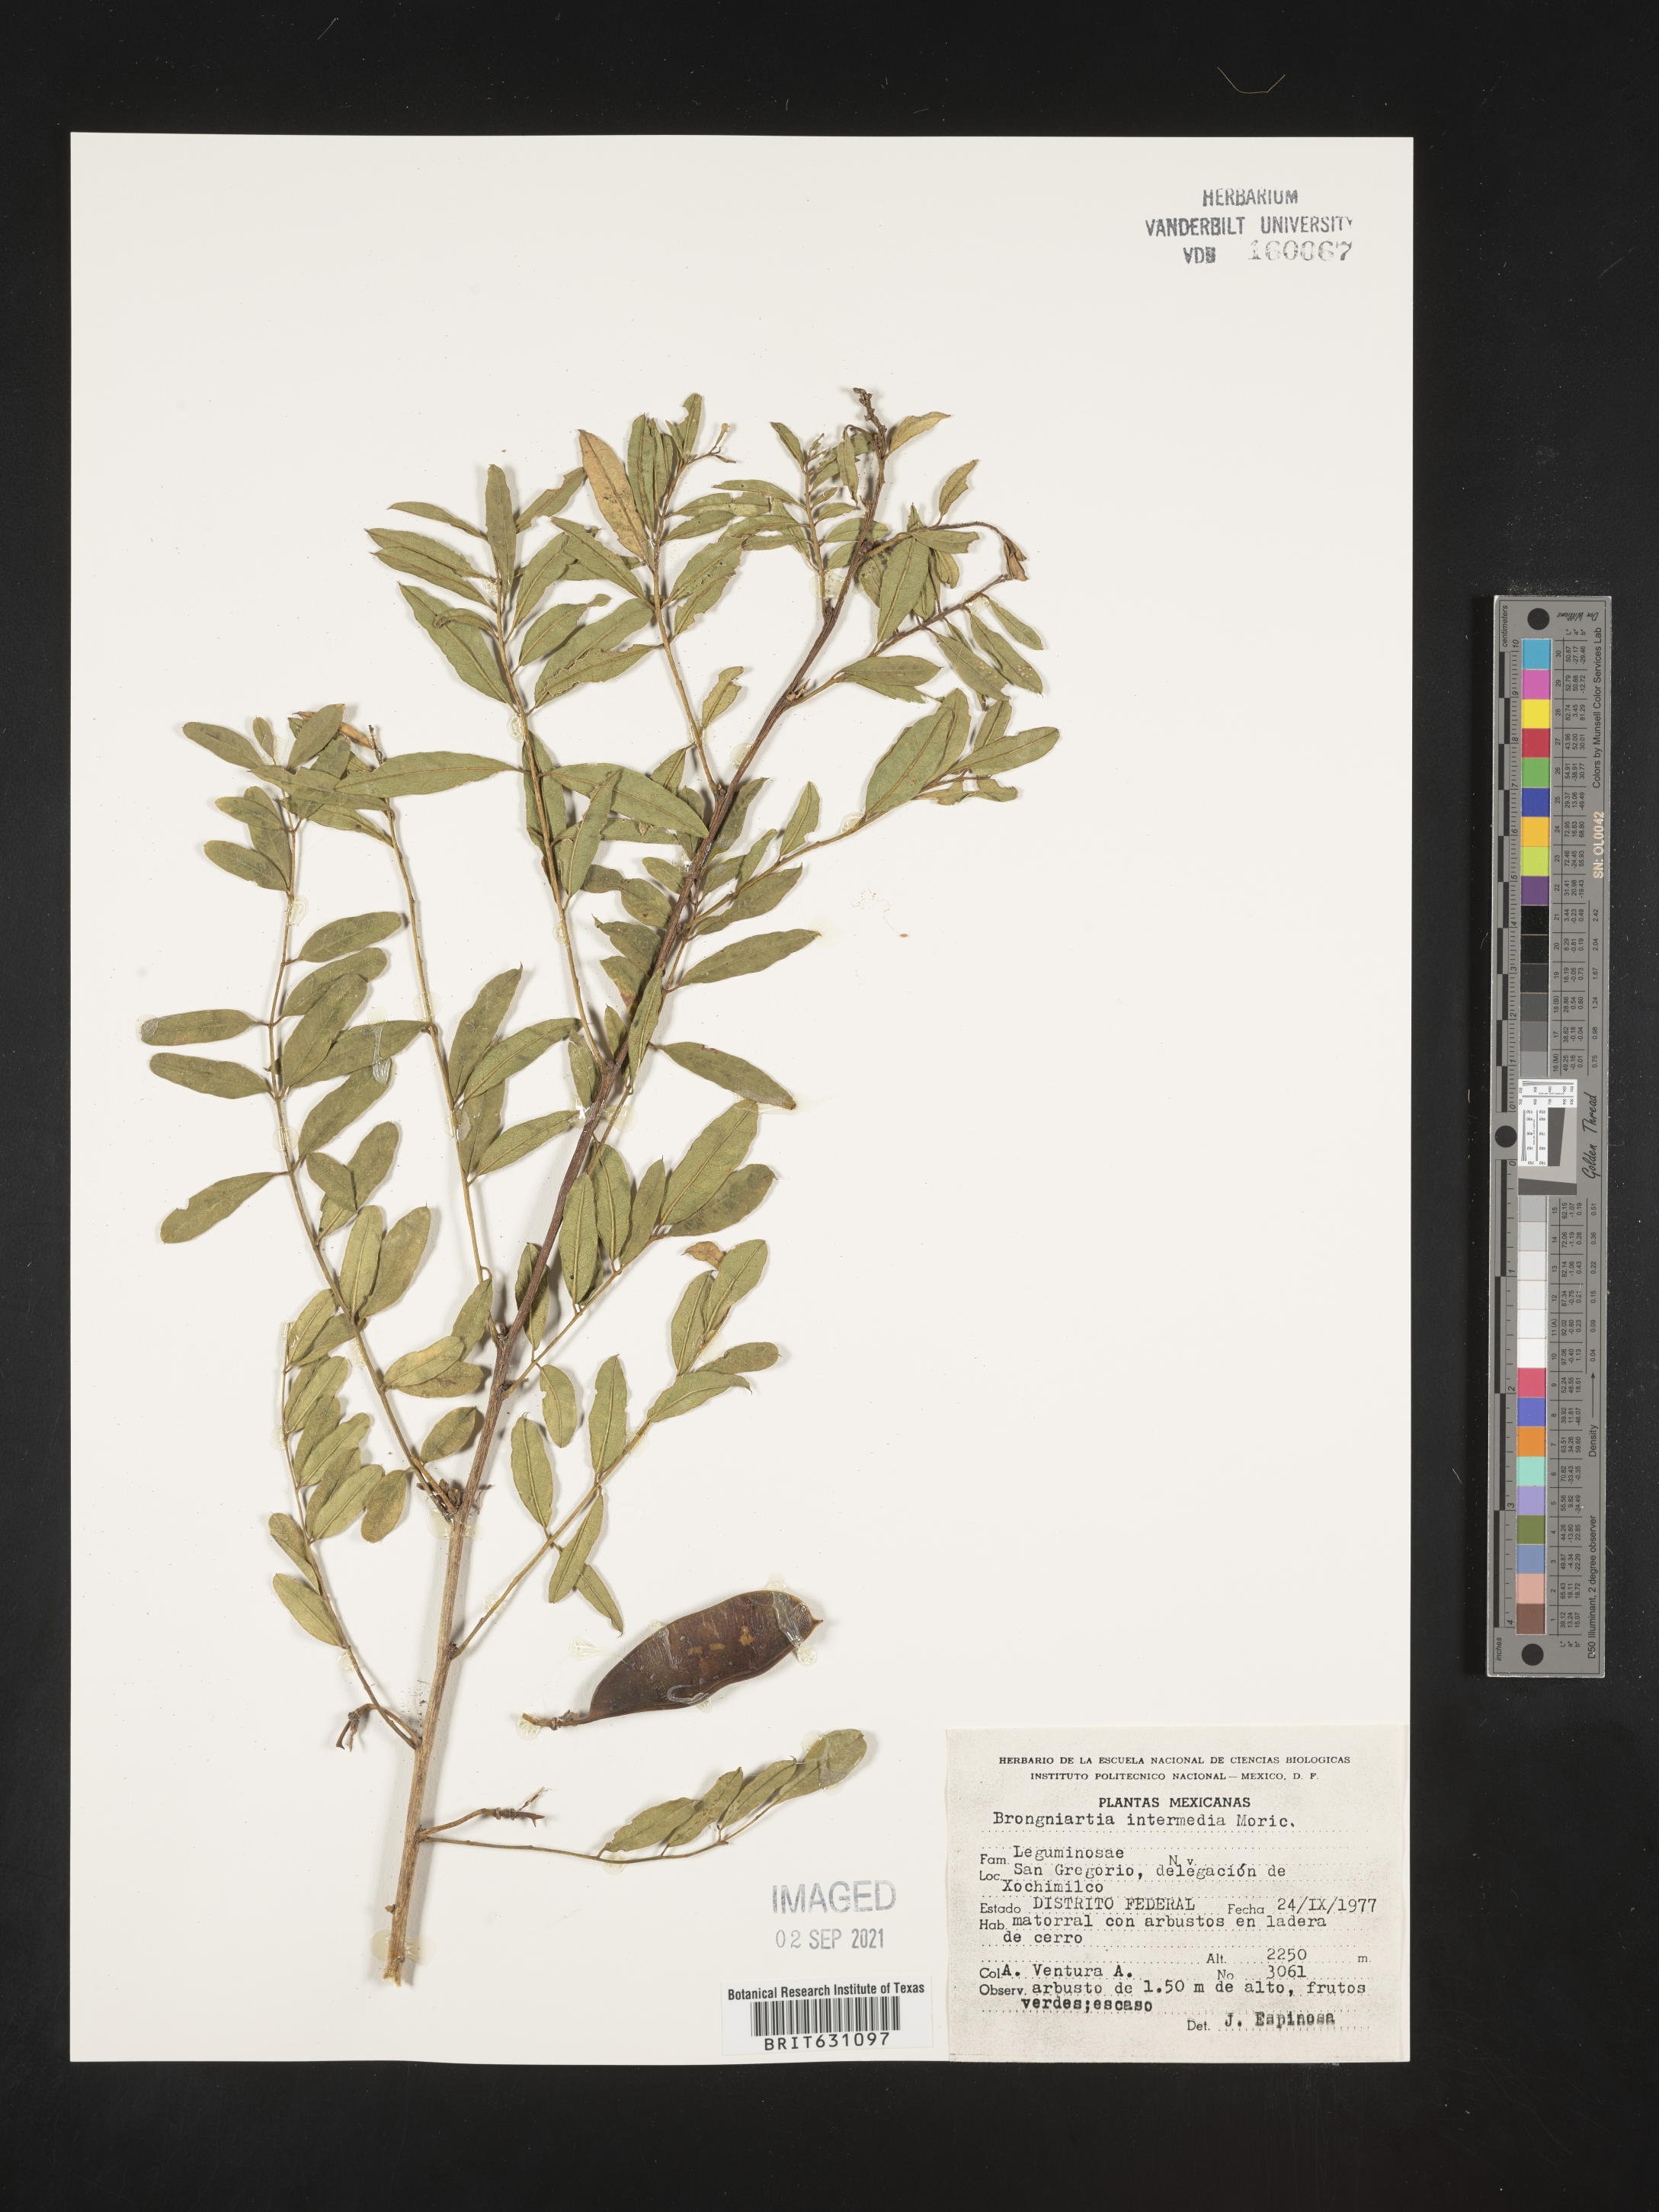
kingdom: Plantae
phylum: Tracheophyta
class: Magnoliopsida
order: Fabales
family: Fabaceae
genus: Brongniartia
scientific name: Brongniartia
